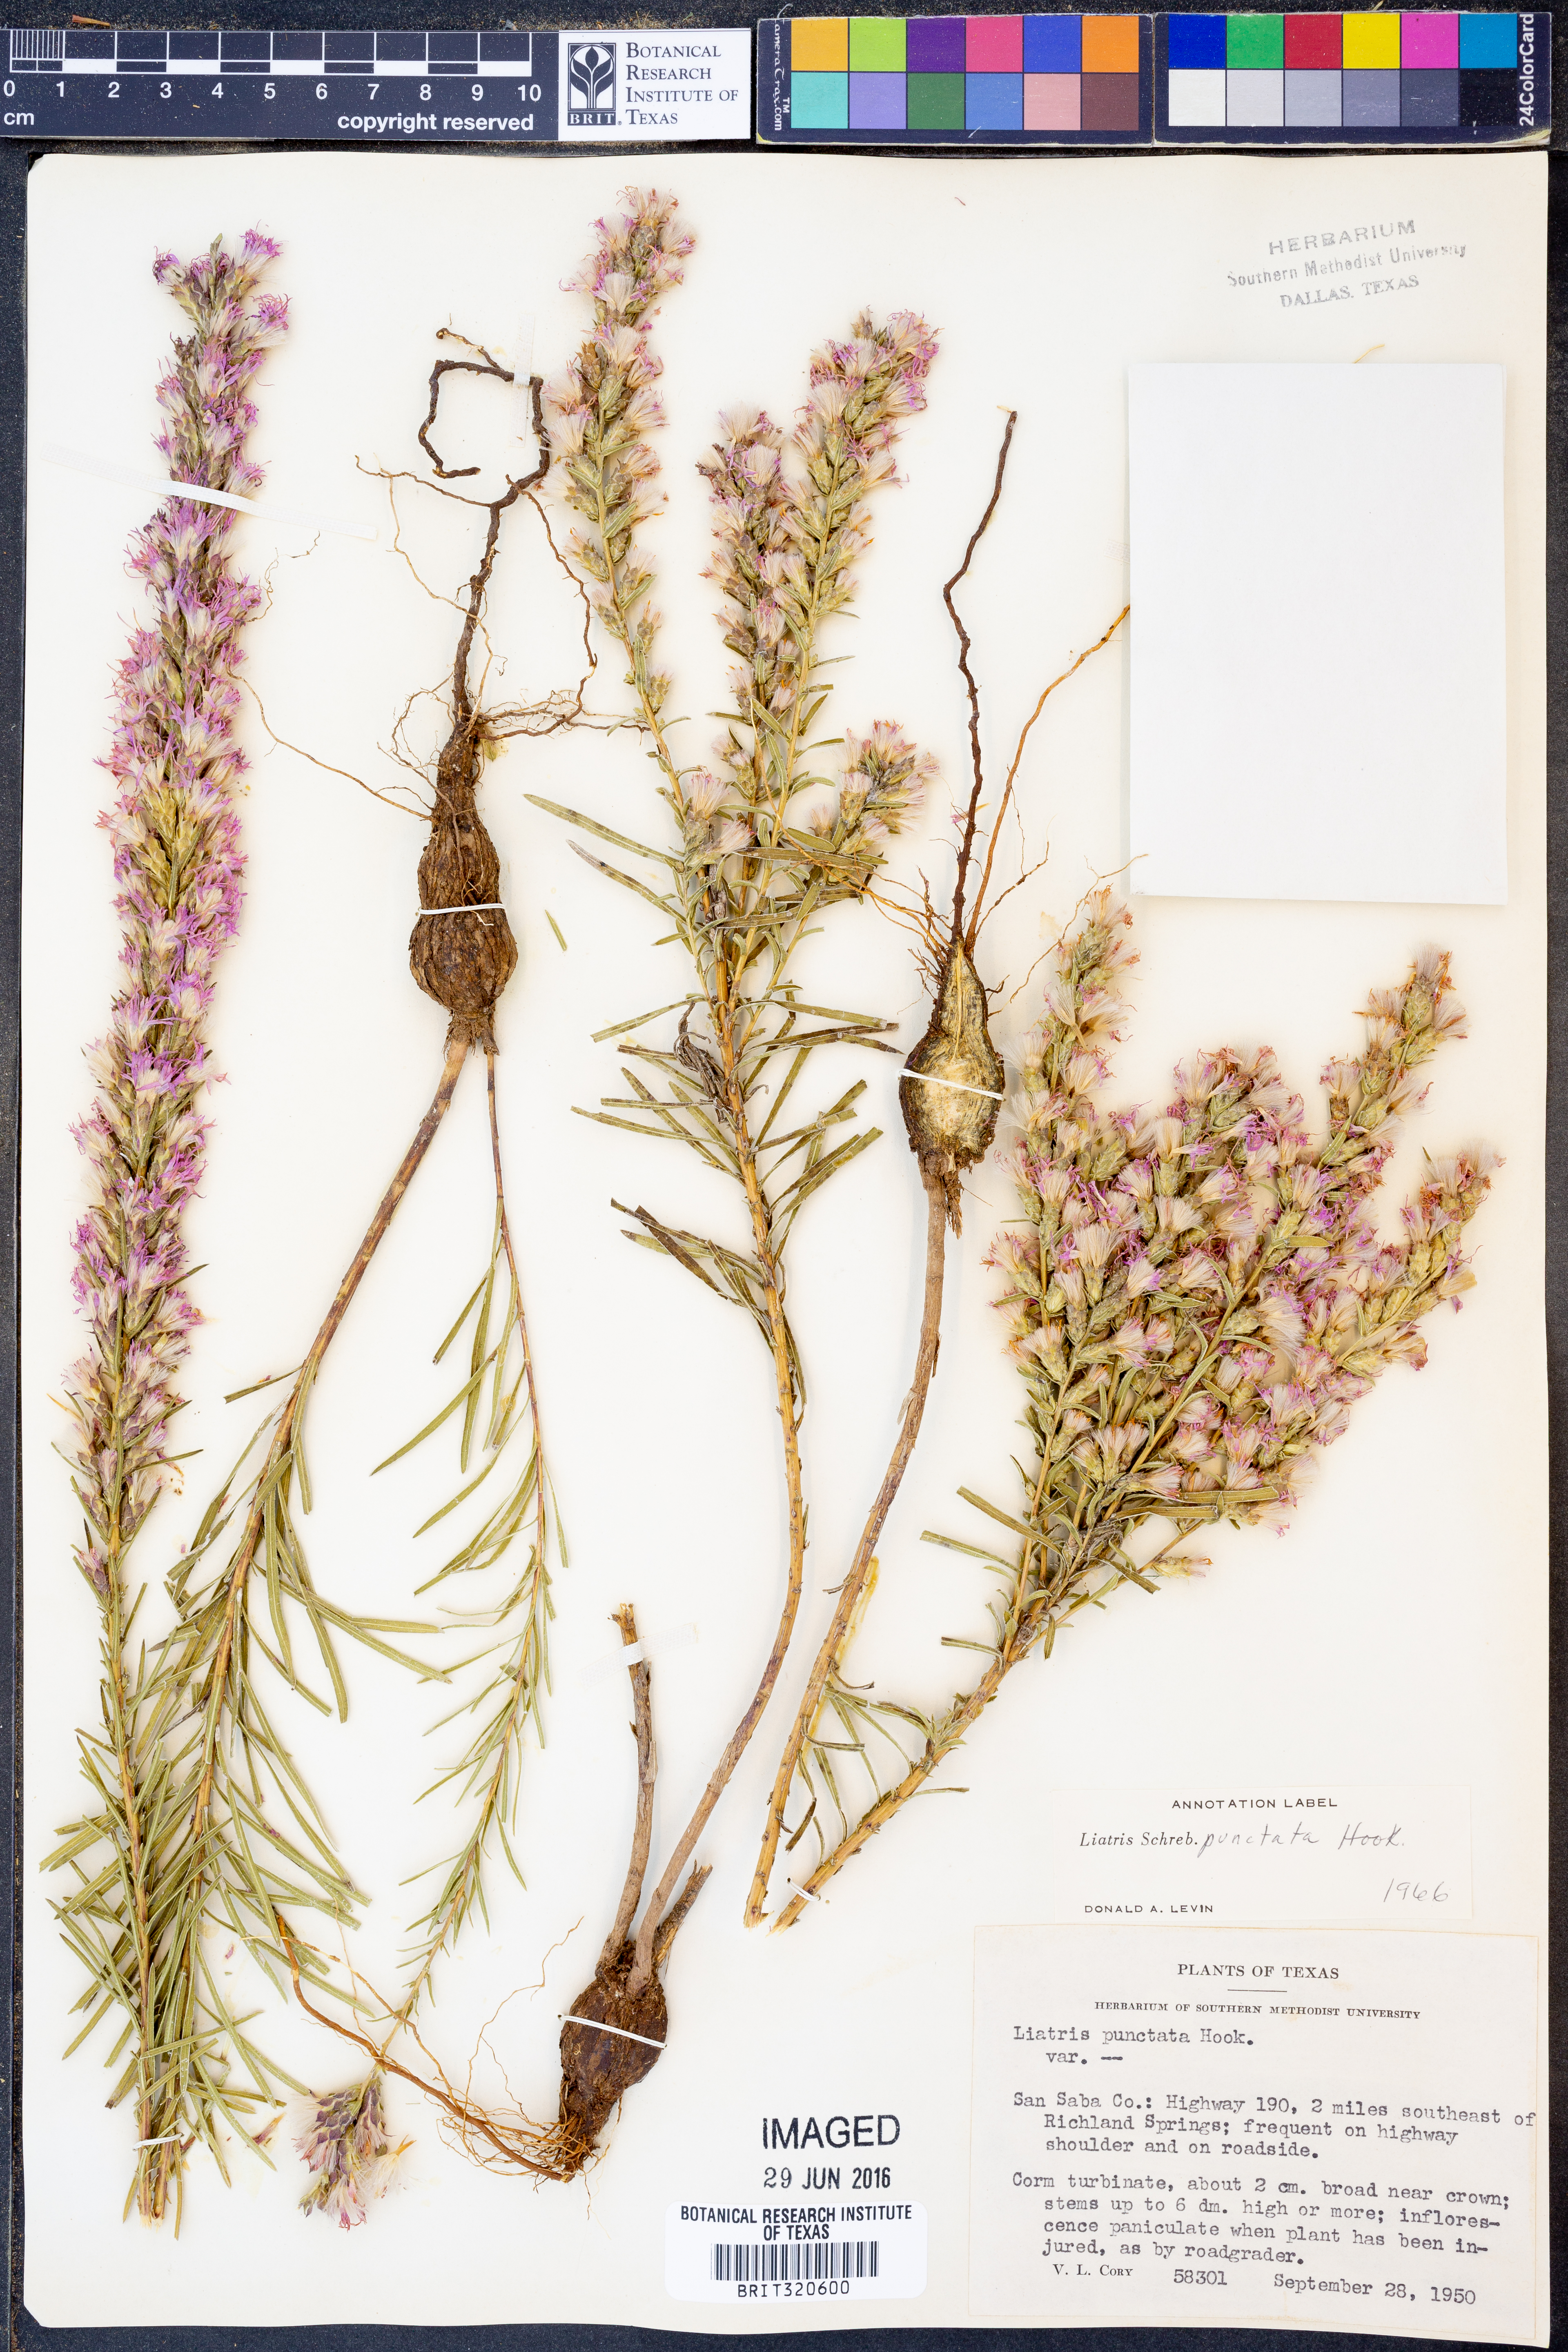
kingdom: Plantae
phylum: Tracheophyta
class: Magnoliopsida
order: Asterales
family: Asteraceae
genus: Liatris
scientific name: Liatris punctata
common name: Dotted gayfeather
